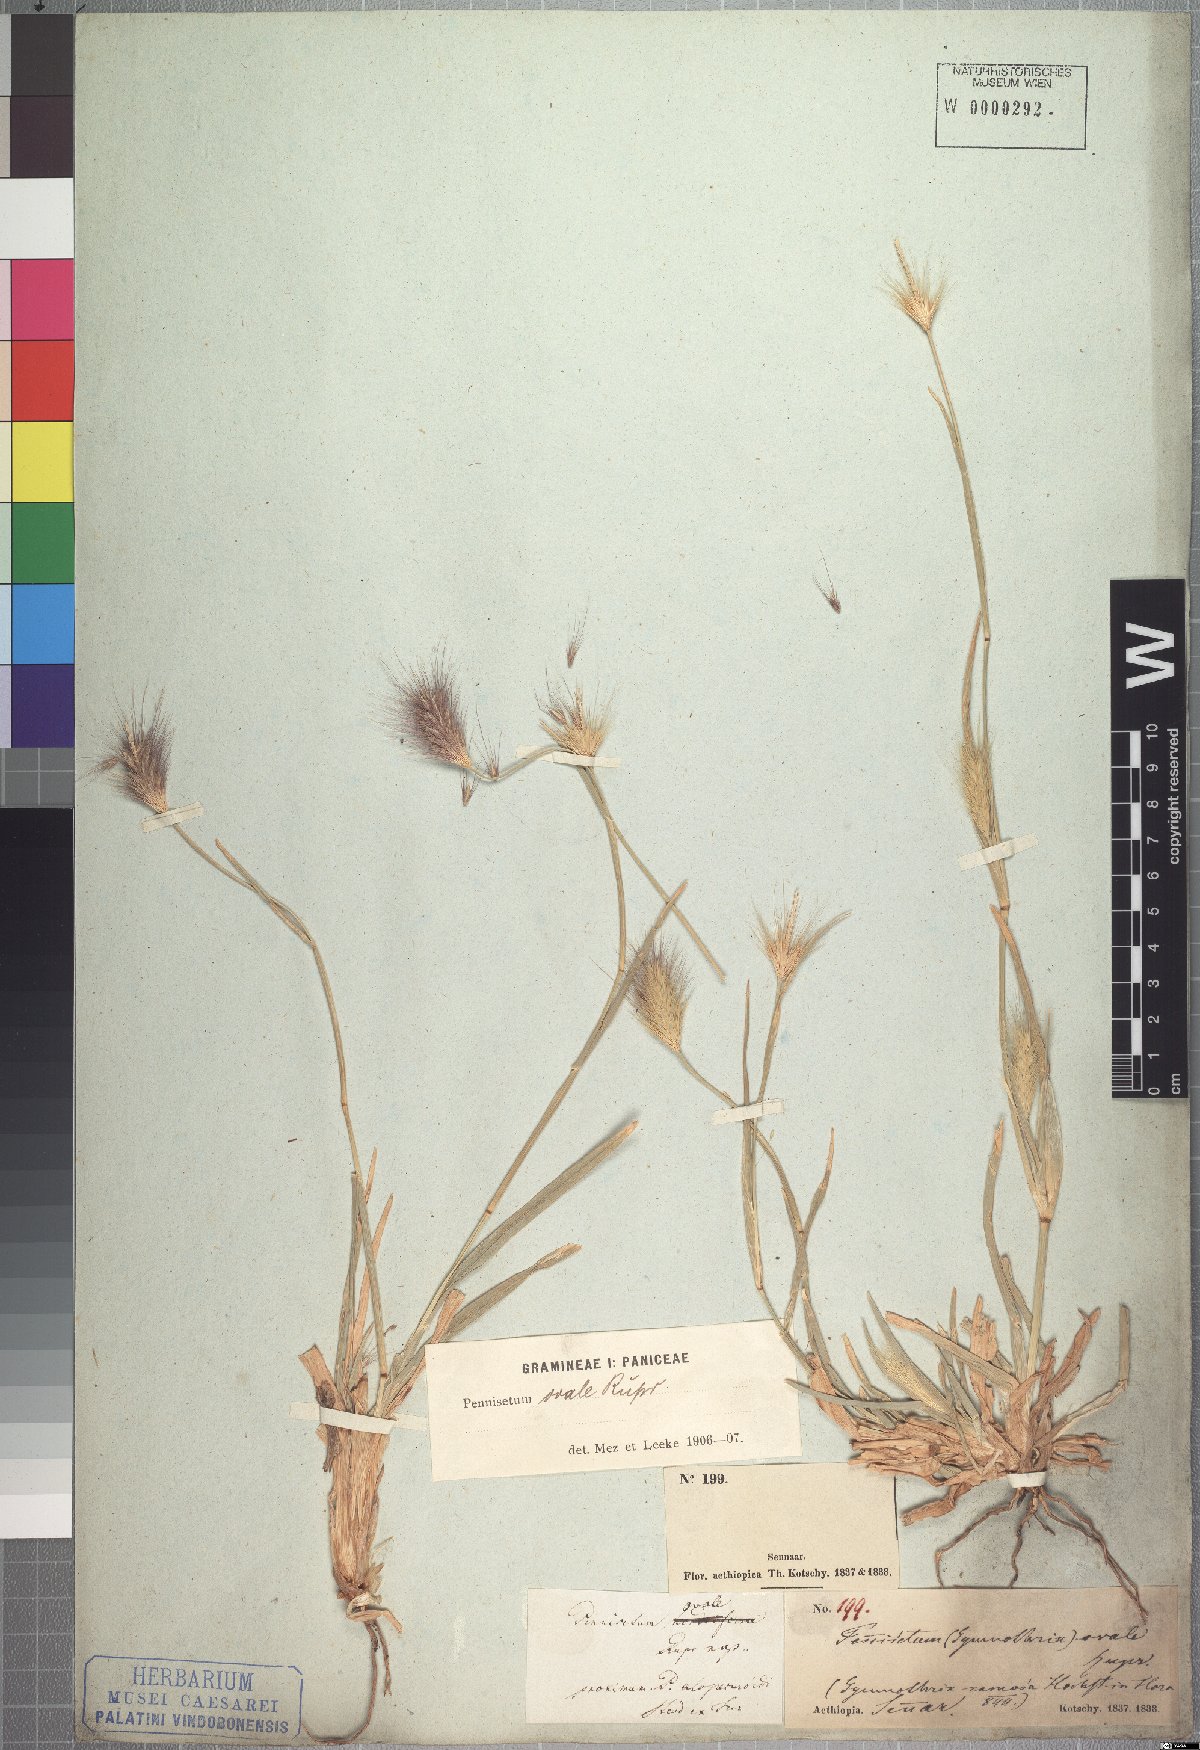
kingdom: Plantae
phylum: Tracheophyta
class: Liliopsida
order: Poales
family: Poaceae
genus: Cenchrus
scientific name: Cenchrus ramosus
